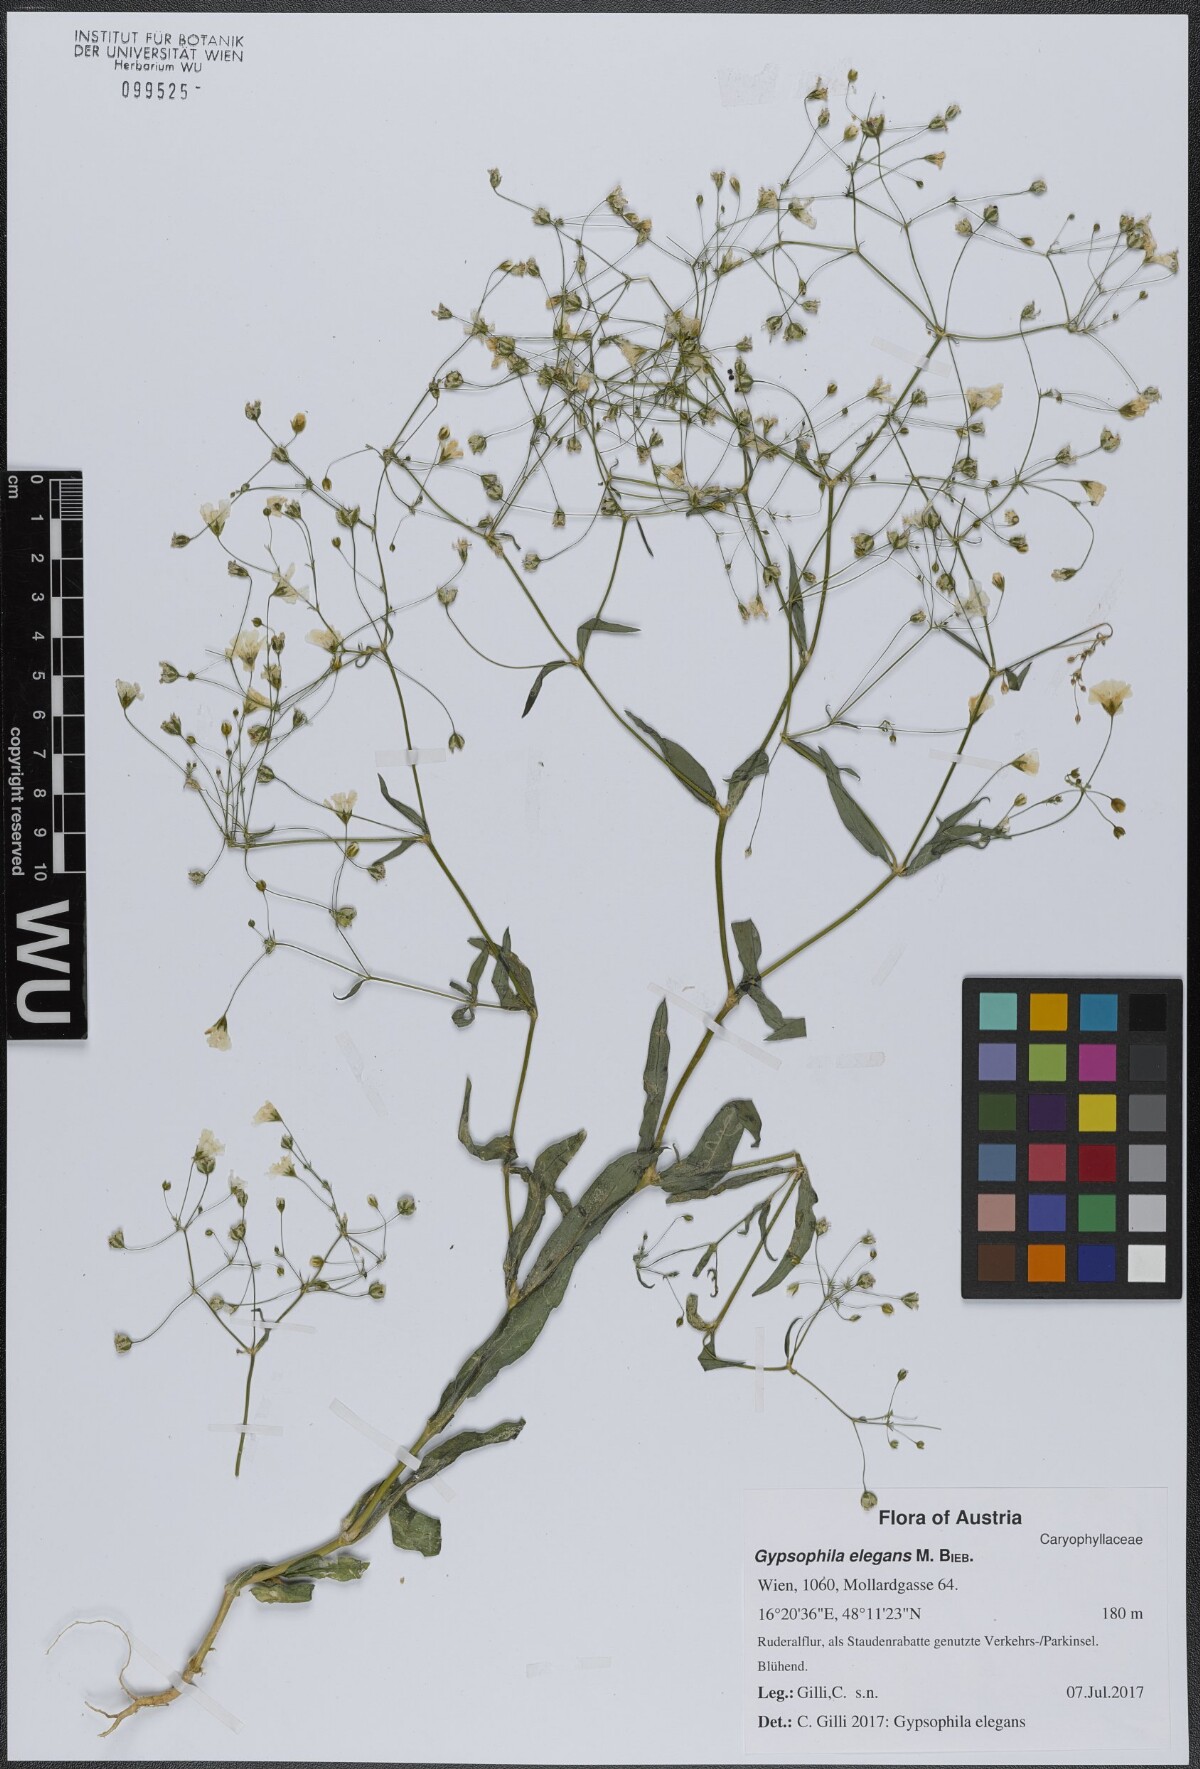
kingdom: Plantae
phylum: Tracheophyta
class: Magnoliopsida
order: Caryophyllales
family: Caryophyllaceae
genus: Gypsophila
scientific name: Gypsophila elegans
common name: Showy baby's-breath
